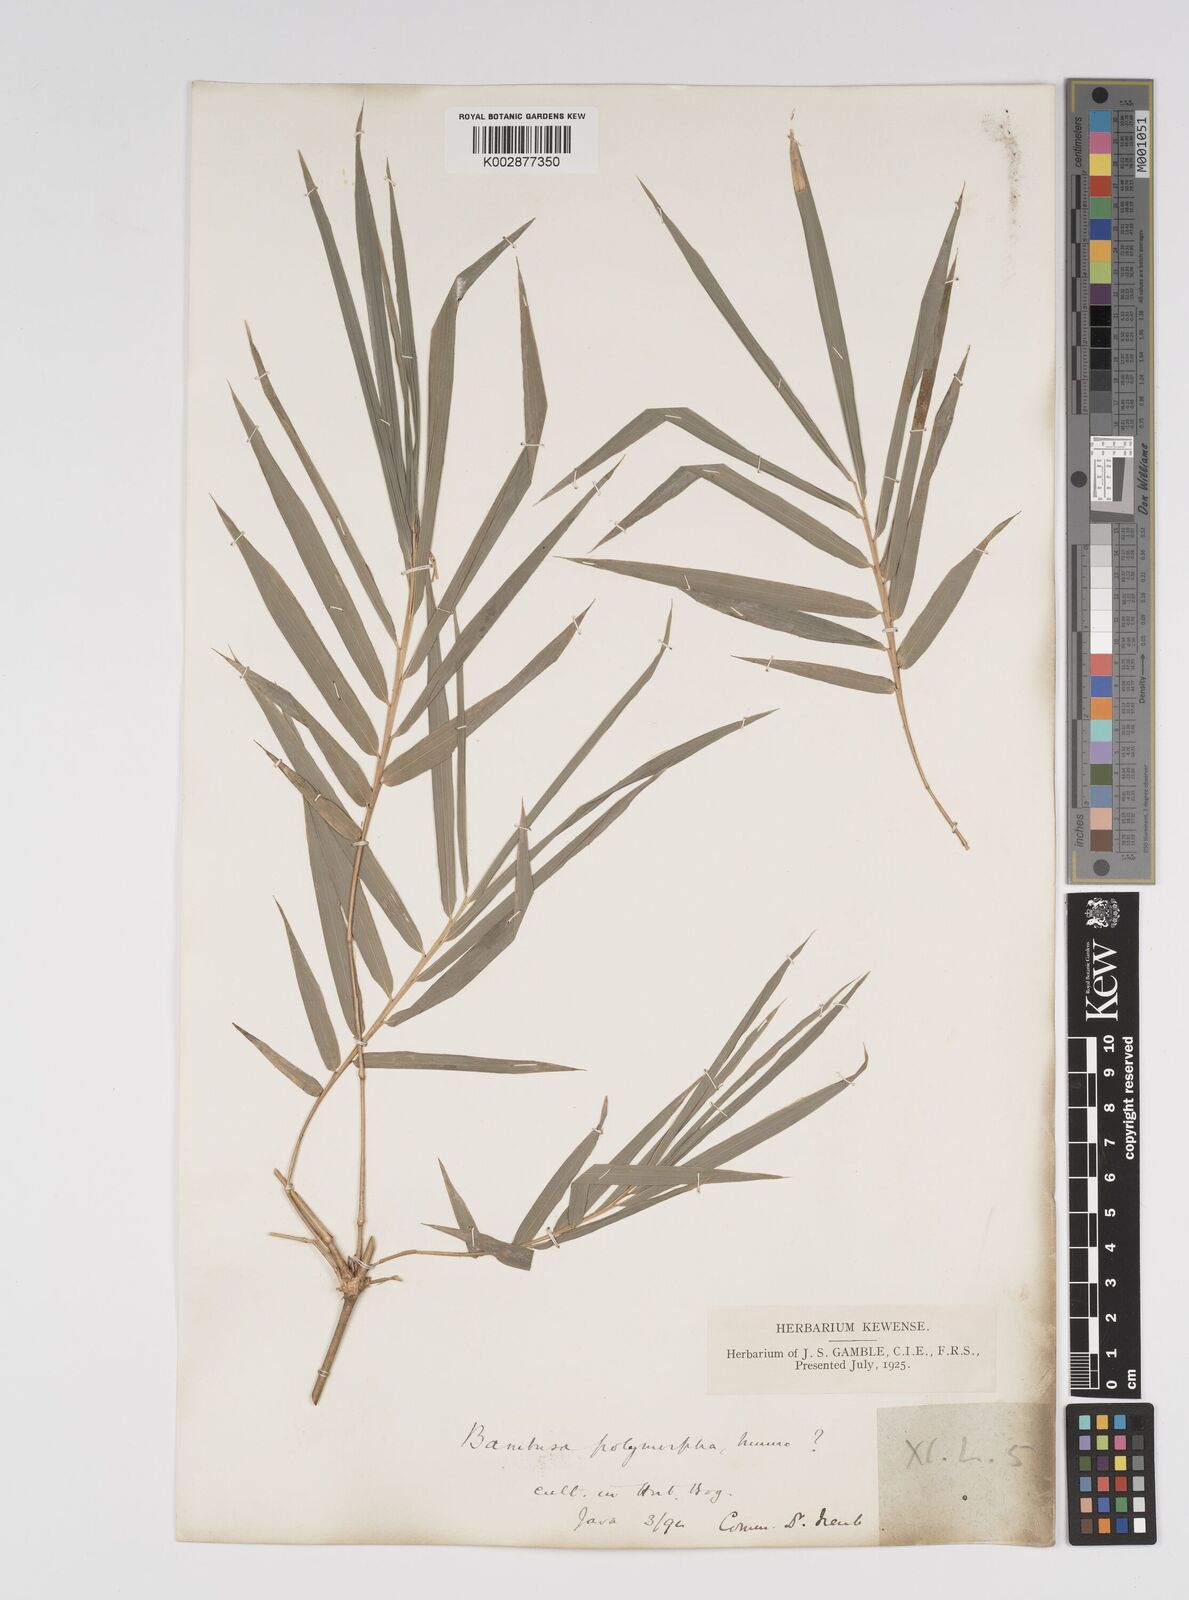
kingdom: Plantae
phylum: Tracheophyta
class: Liliopsida
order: Poales
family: Poaceae
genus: Bambusa
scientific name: Bambusa polymorpha
